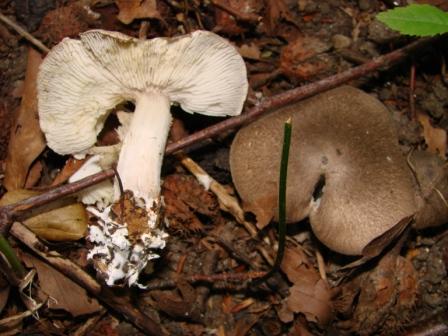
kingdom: Fungi
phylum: Basidiomycota
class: Agaricomycetes
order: Agaricales
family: Tricholomataceae
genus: Tricholoma
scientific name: Tricholoma scalpturatum
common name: gulplettet ridderhat
